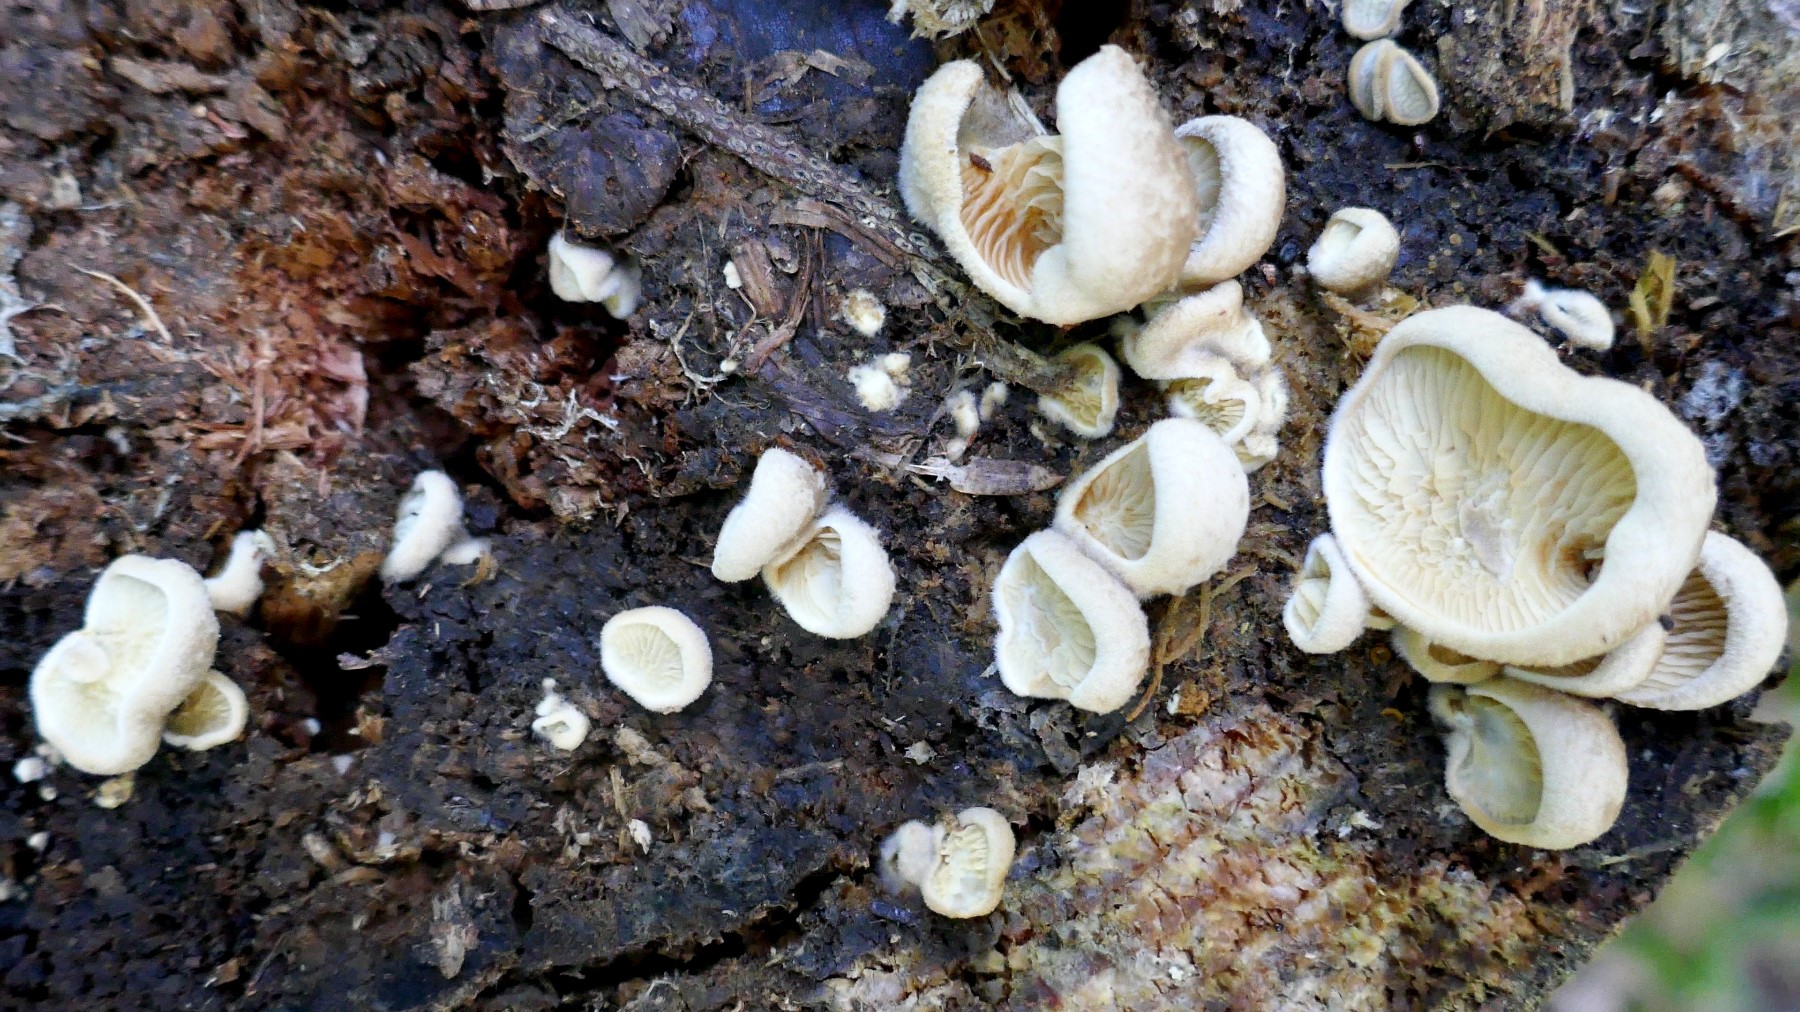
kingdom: Fungi
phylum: Basidiomycota
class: Agaricomycetes
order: Boletales
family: Tapinellaceae
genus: Tapinella
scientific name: Tapinella panuoides
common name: tømmer-viftesvamp
